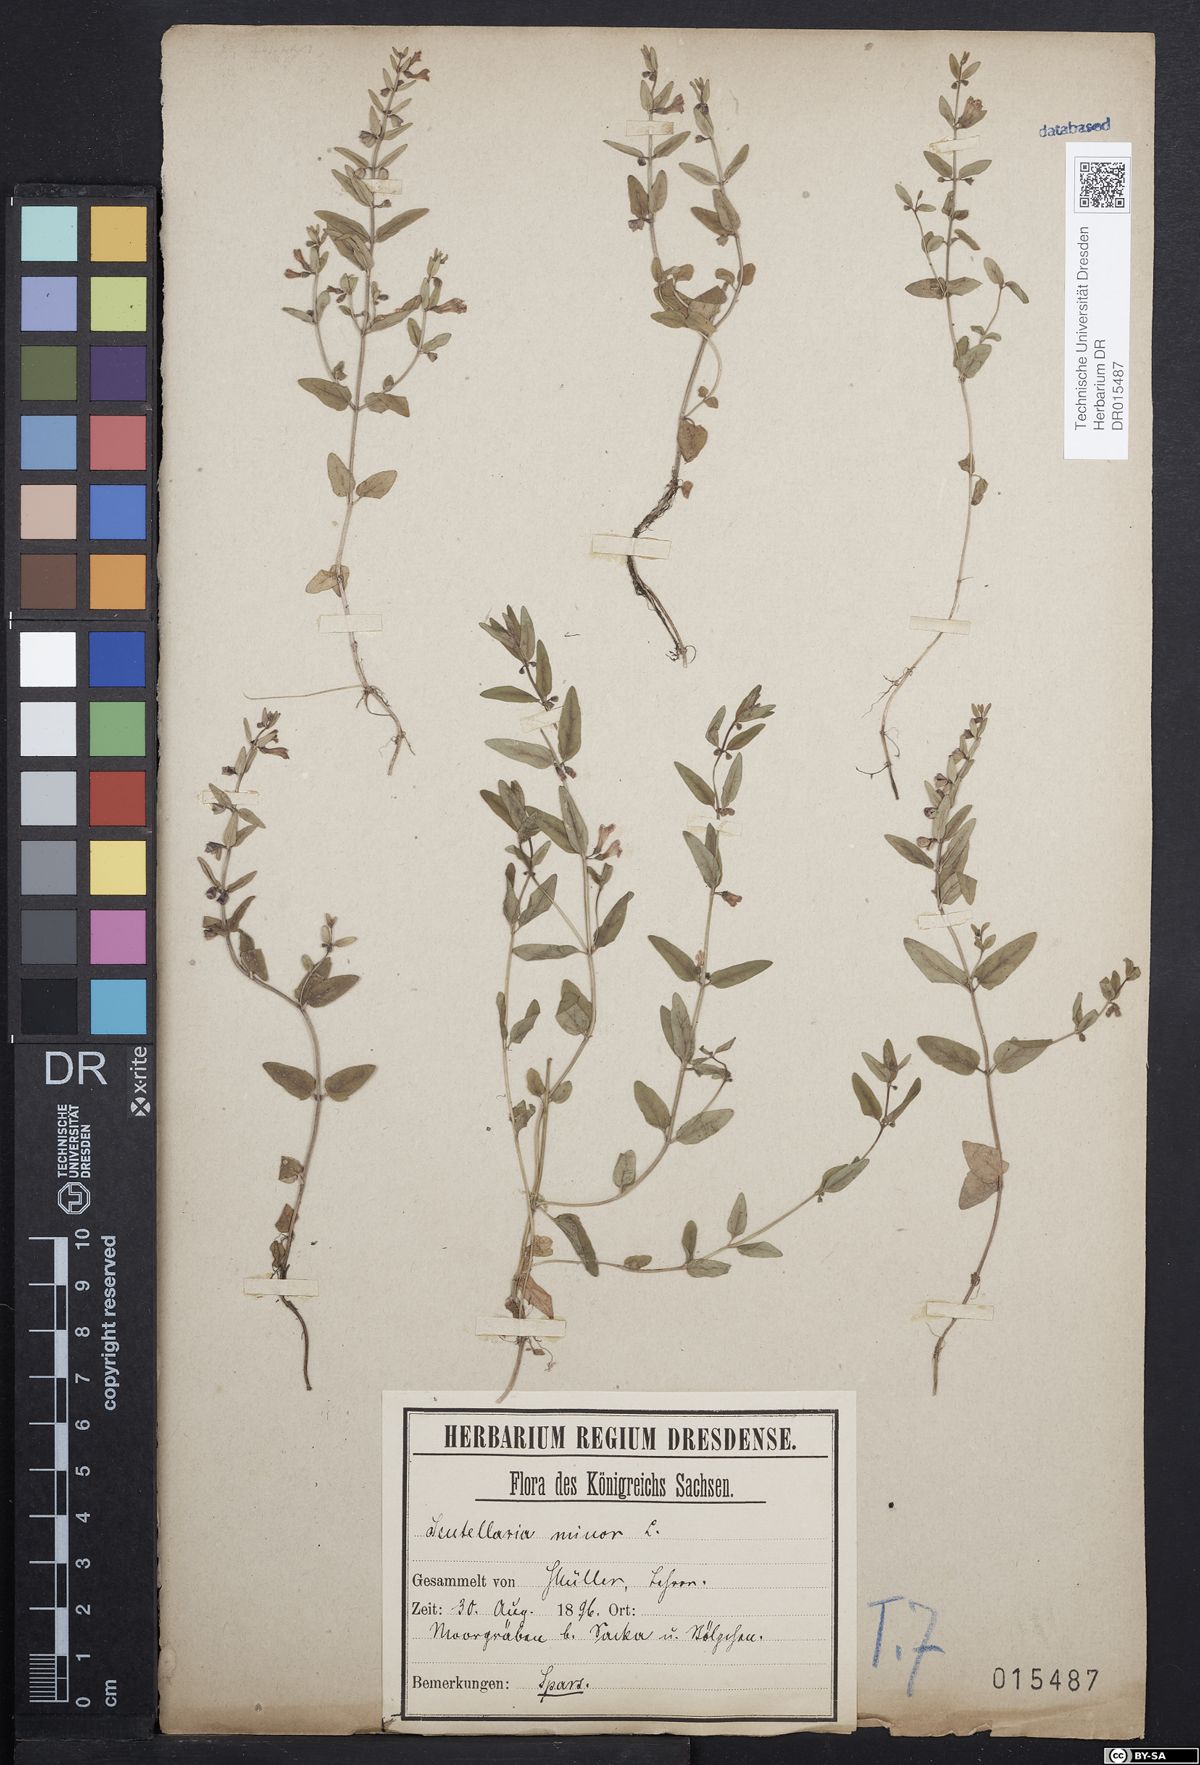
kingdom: Plantae
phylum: Tracheophyta
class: Magnoliopsida
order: Lamiales
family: Lamiaceae
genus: Scutellaria
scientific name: Scutellaria minor
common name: Lesser skullcap
